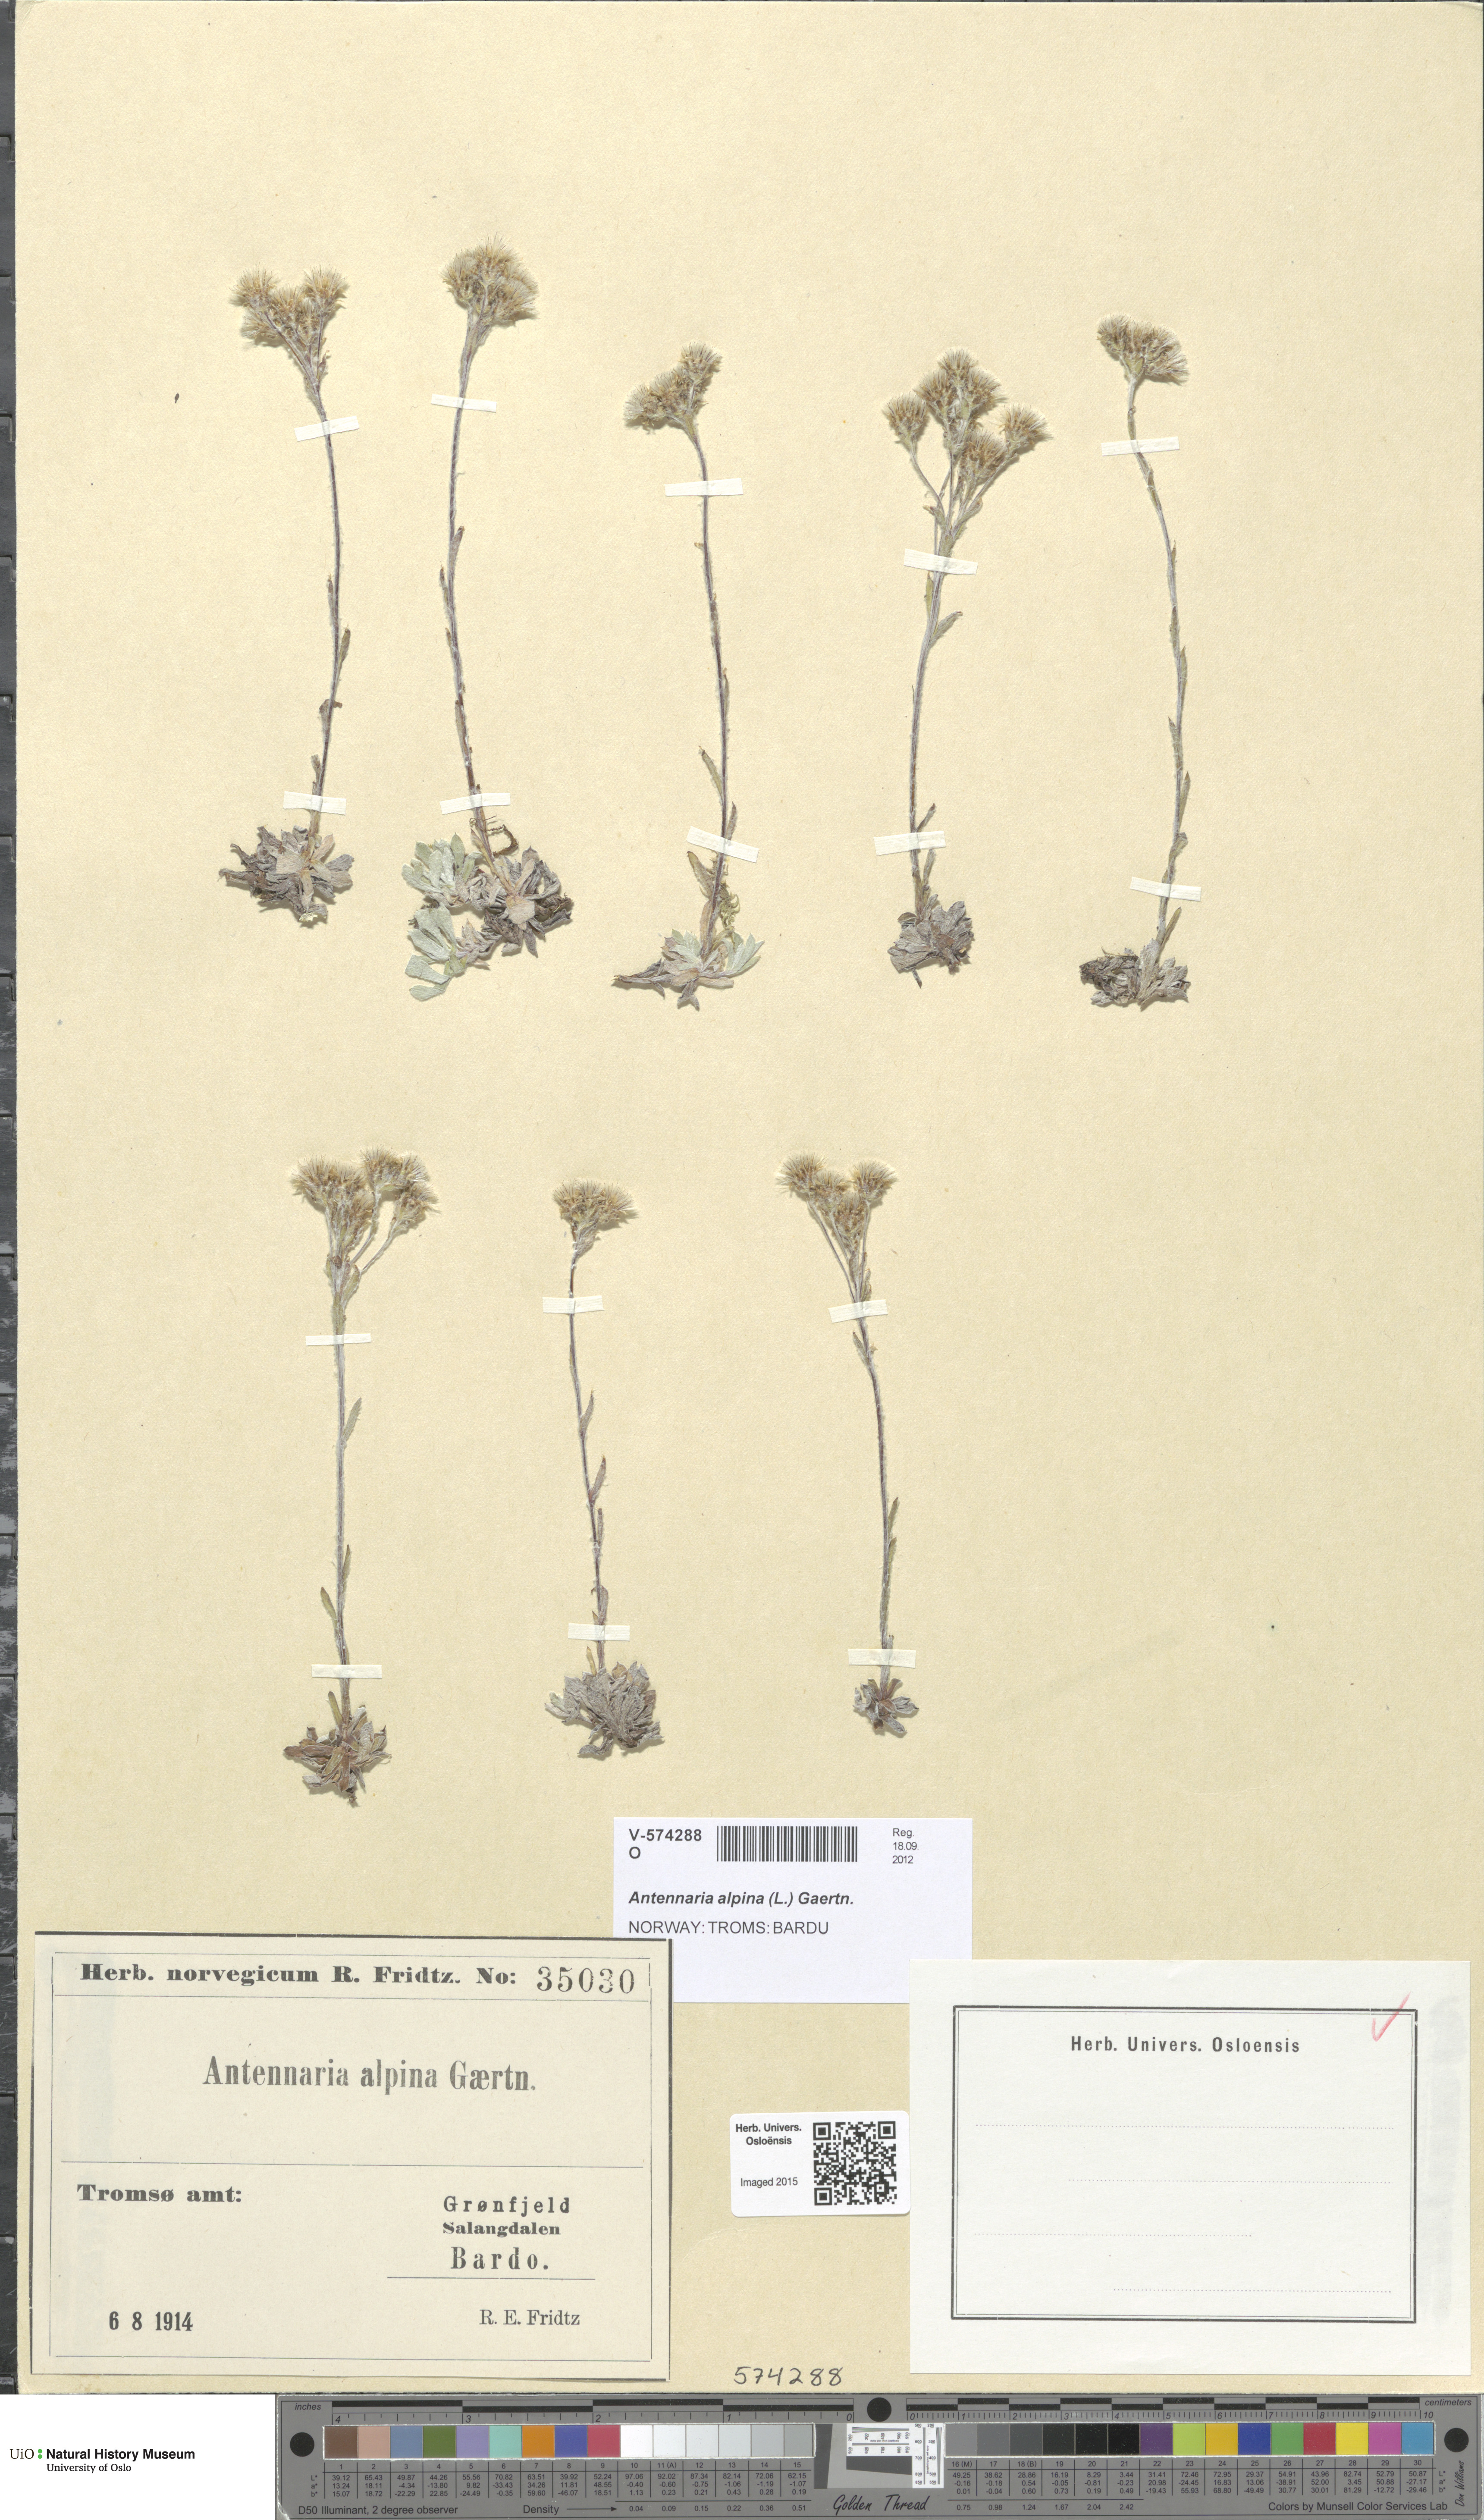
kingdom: Plantae
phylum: Tracheophyta
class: Magnoliopsida
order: Asterales
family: Asteraceae
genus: Antennaria
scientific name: Antennaria alpina
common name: Alpine pussytoes
